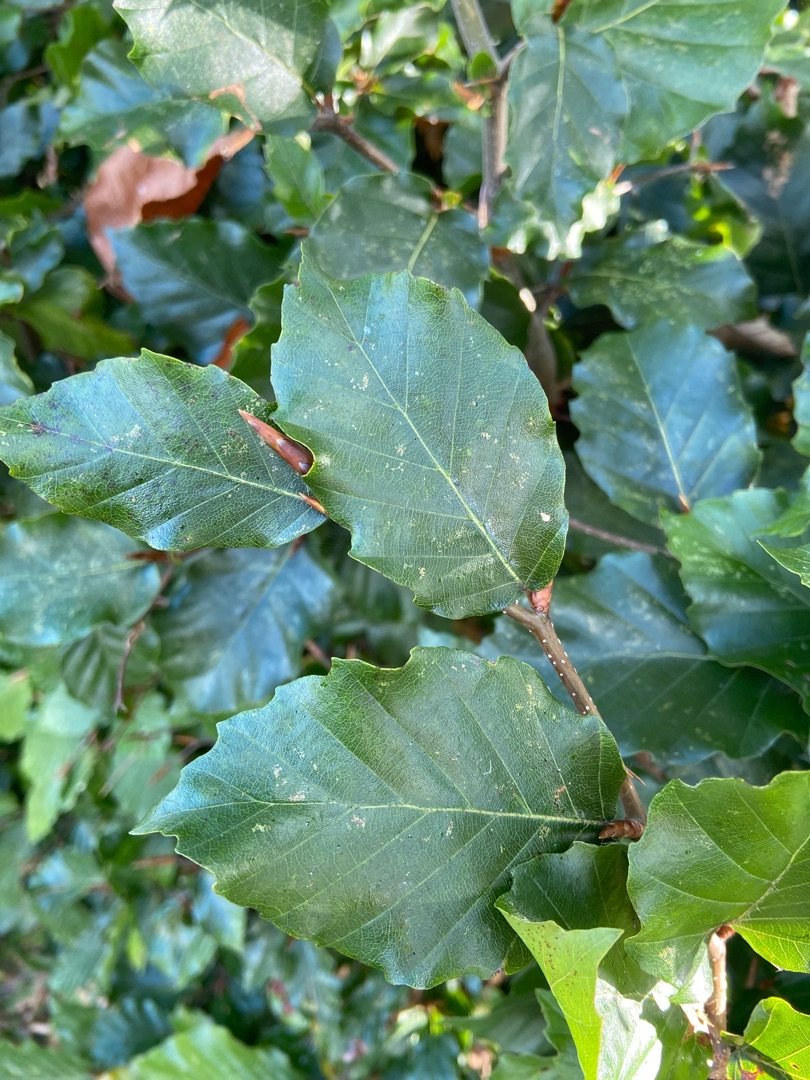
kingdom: Plantae
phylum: Tracheophyta
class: Magnoliopsida
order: Fagales
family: Fagaceae
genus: Fagus
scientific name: Fagus sylvatica
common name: Bøg
